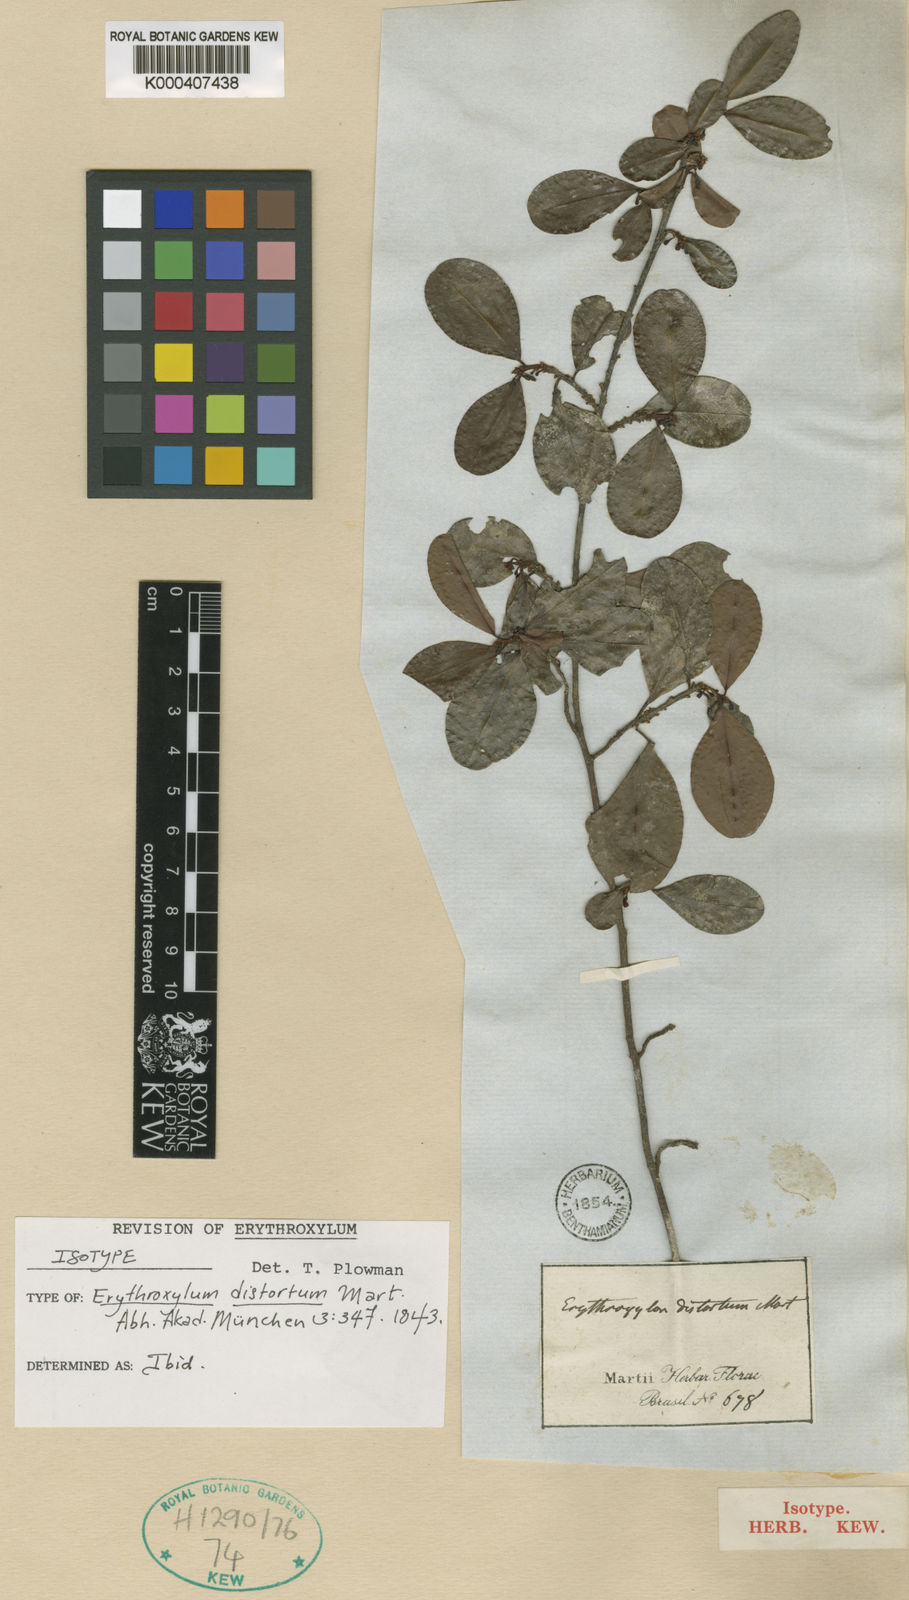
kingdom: Plantae
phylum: Tracheophyta
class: Magnoliopsida
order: Malpighiales
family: Erythroxylaceae
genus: Erythroxylum
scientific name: Erythroxylum distortum
